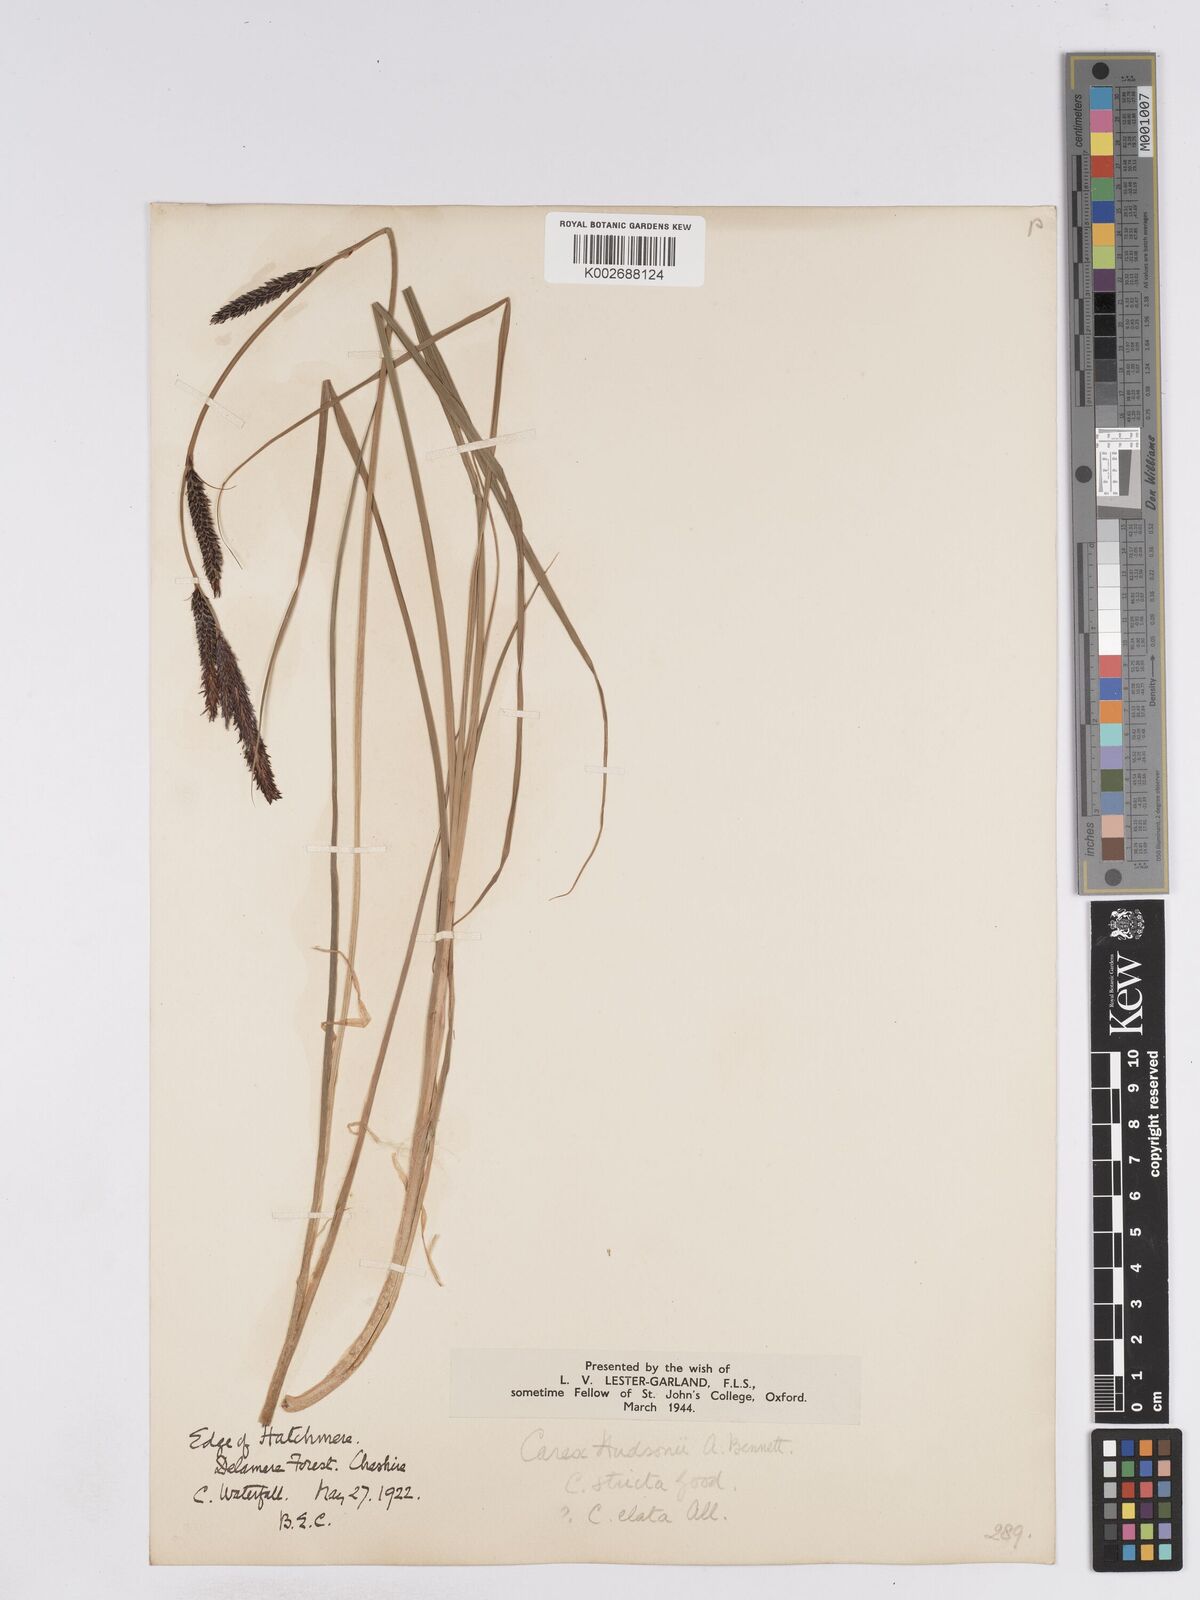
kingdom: Plantae
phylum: Tracheophyta
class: Liliopsida
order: Poales
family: Cyperaceae
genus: Carex
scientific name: Carex elata
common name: Tufted sedge
